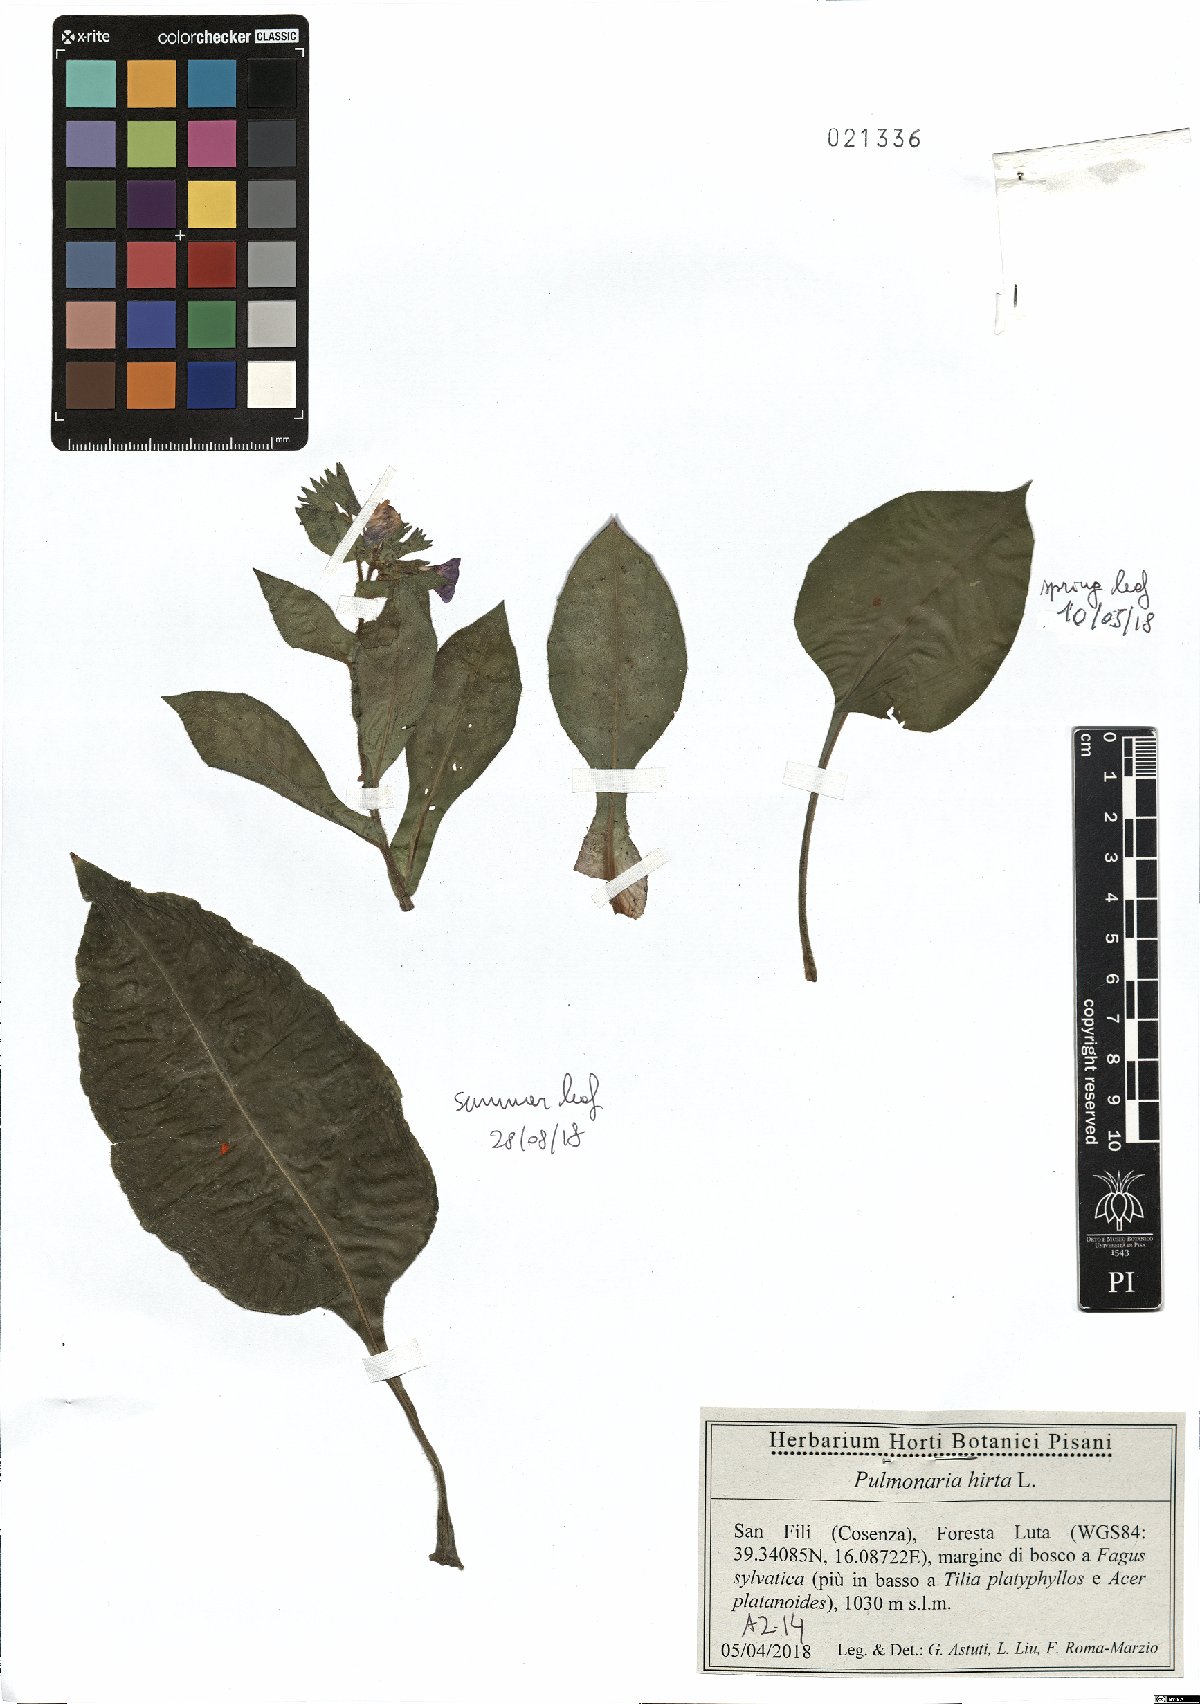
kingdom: Plantae
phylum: Tracheophyta
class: Magnoliopsida
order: Boraginales
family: Boraginaceae
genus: Pulmonaria
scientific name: Pulmonaria hirta
